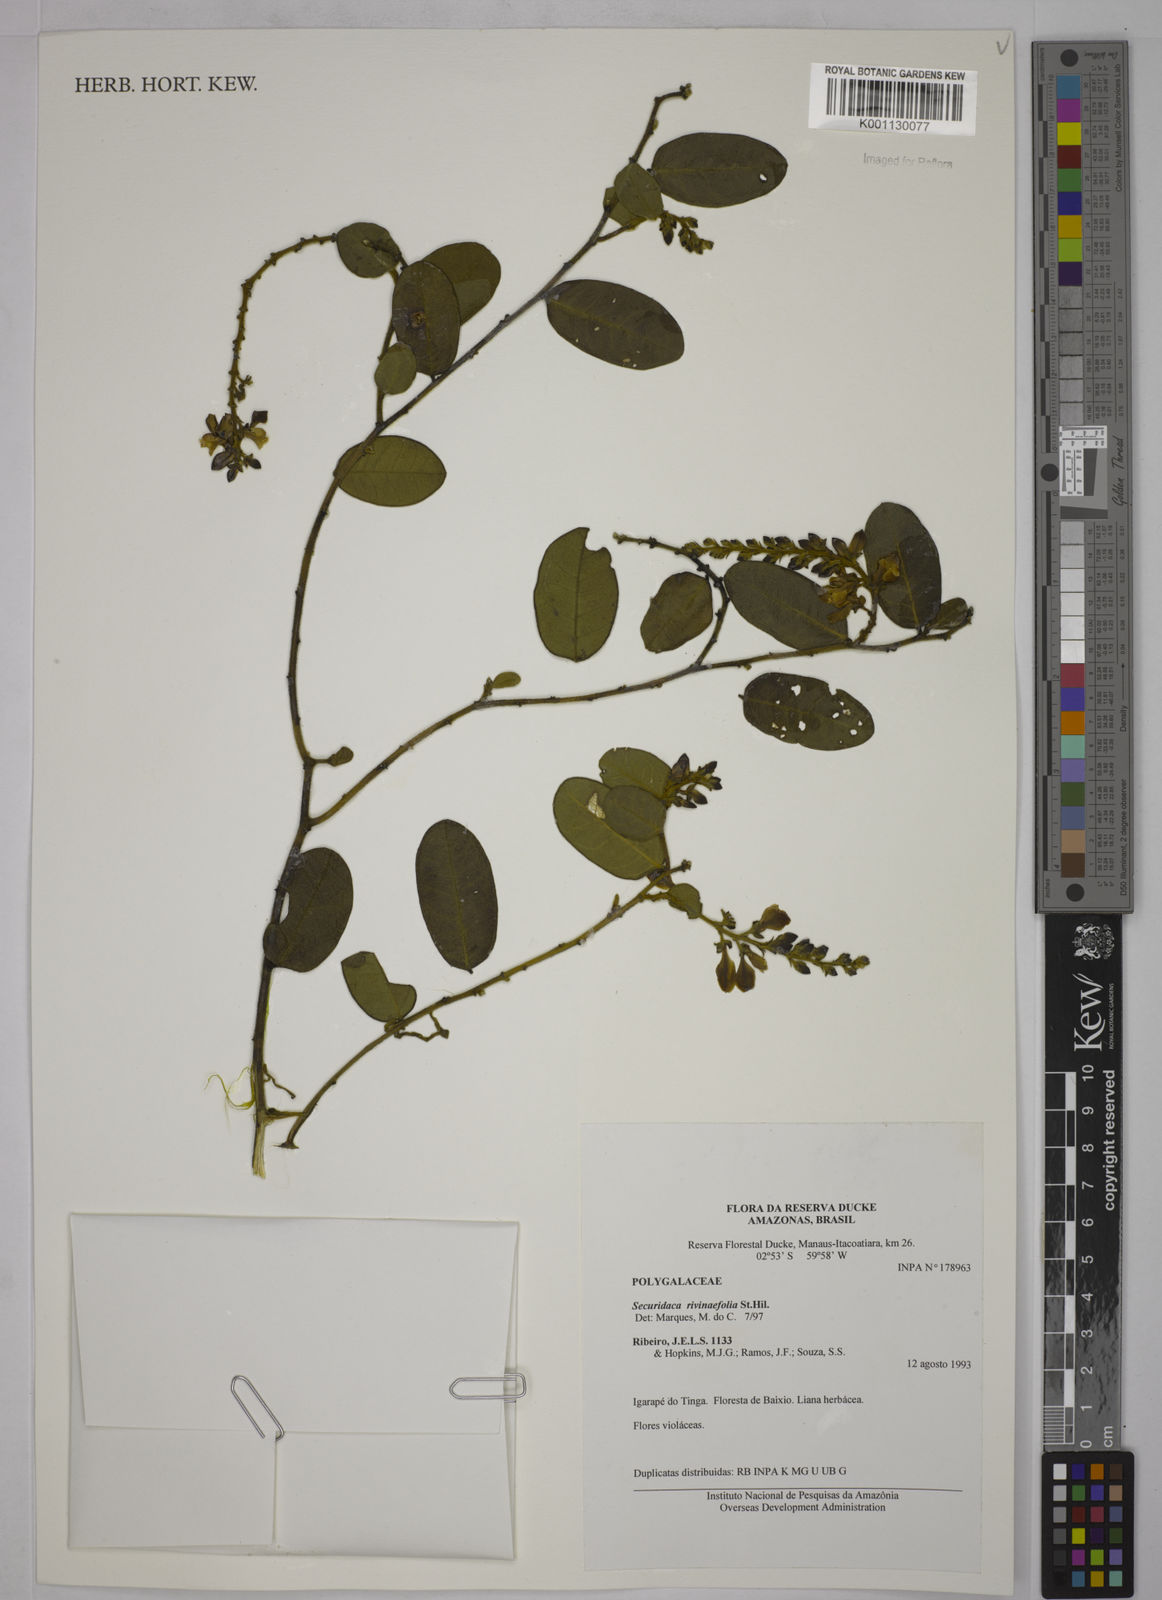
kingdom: Plantae
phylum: Tracheophyta
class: Magnoliopsida
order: Fabales
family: Polygalaceae
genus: Securidaca
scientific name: Securidaca rivinifolia
